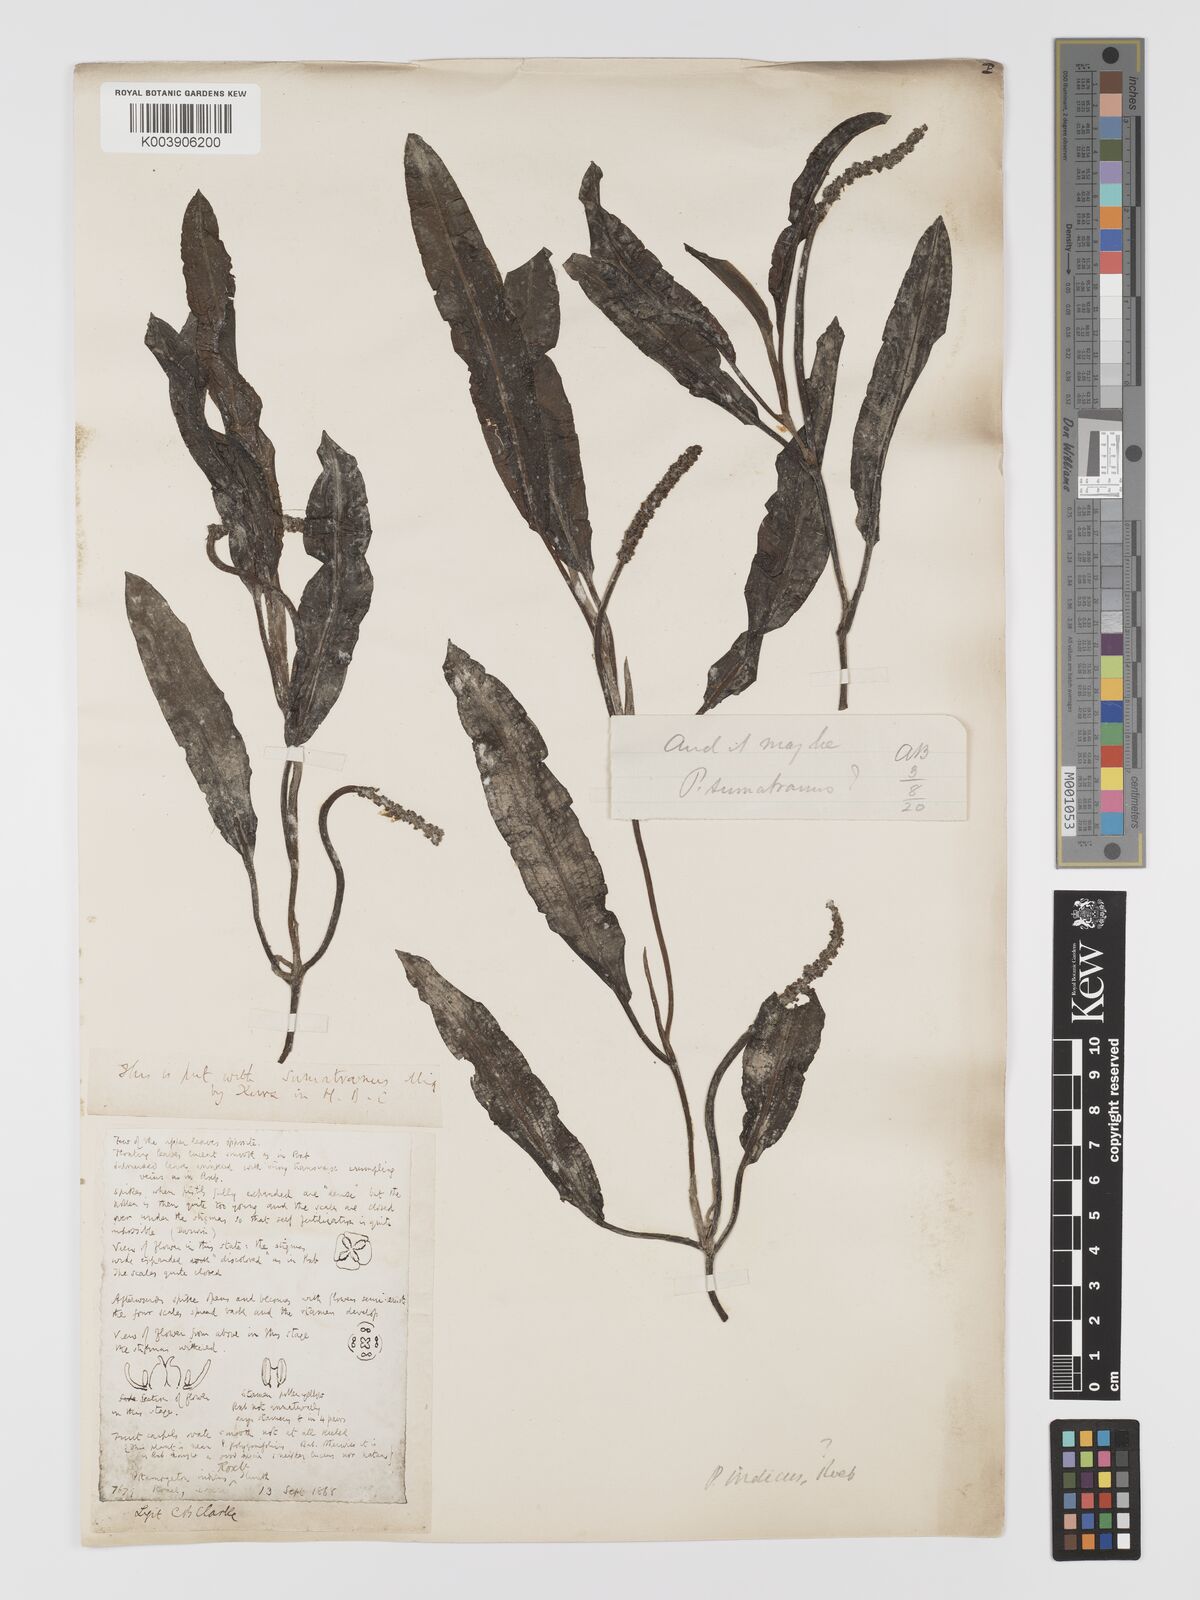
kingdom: Plantae
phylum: Tracheophyta
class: Liliopsida
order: Alismatales
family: Potamogetonaceae
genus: Potamogeton
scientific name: Potamogeton sumatranus
